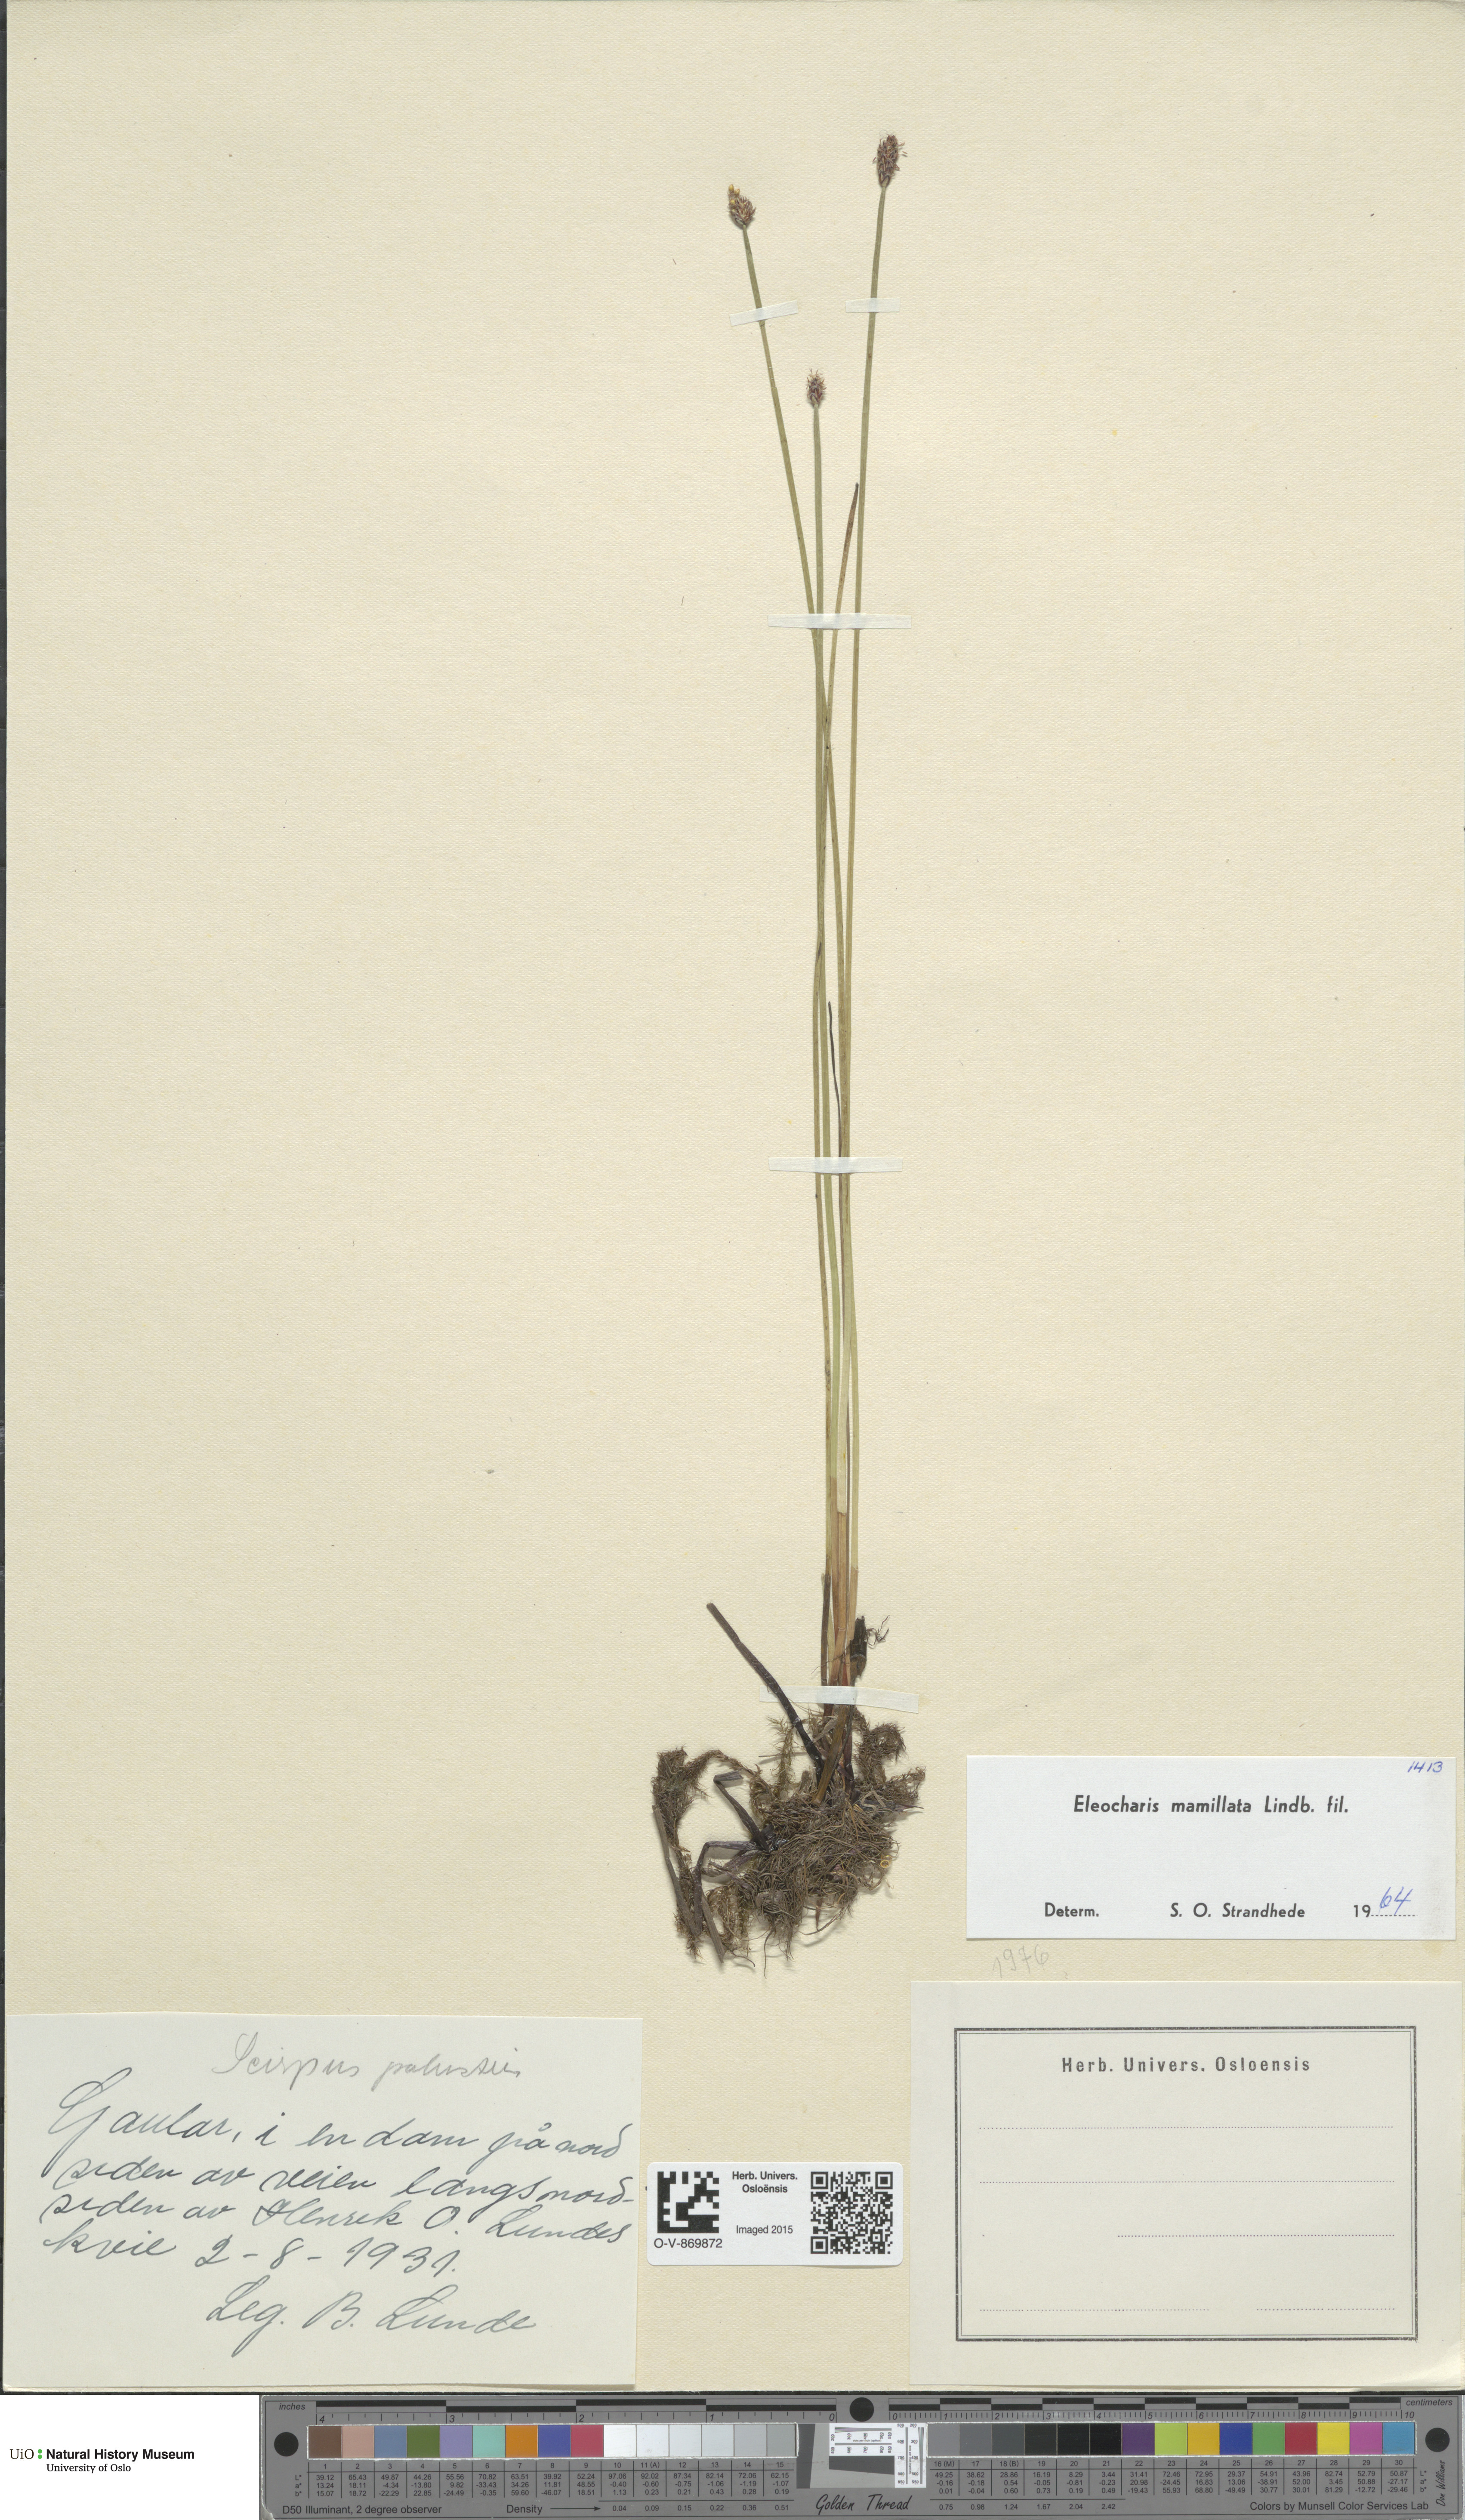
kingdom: Plantae
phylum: Tracheophyta
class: Liliopsida
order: Poales
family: Cyperaceae
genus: Eleocharis
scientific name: Eleocharis mamillata
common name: Northern spike-rush
